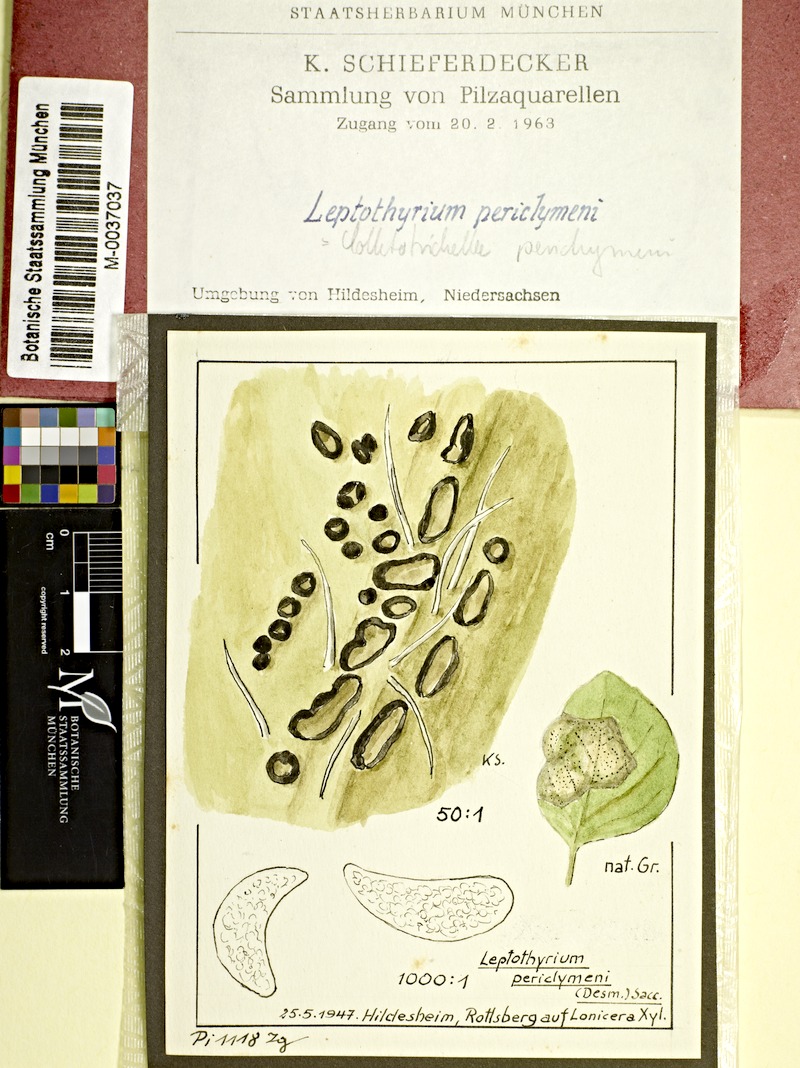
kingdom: Plantae
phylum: Tracheophyta
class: Magnoliopsida
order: Dipsacales
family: Caprifoliaceae
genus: Lonicera
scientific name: Lonicera xylosteum
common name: Fly honeysuckle
